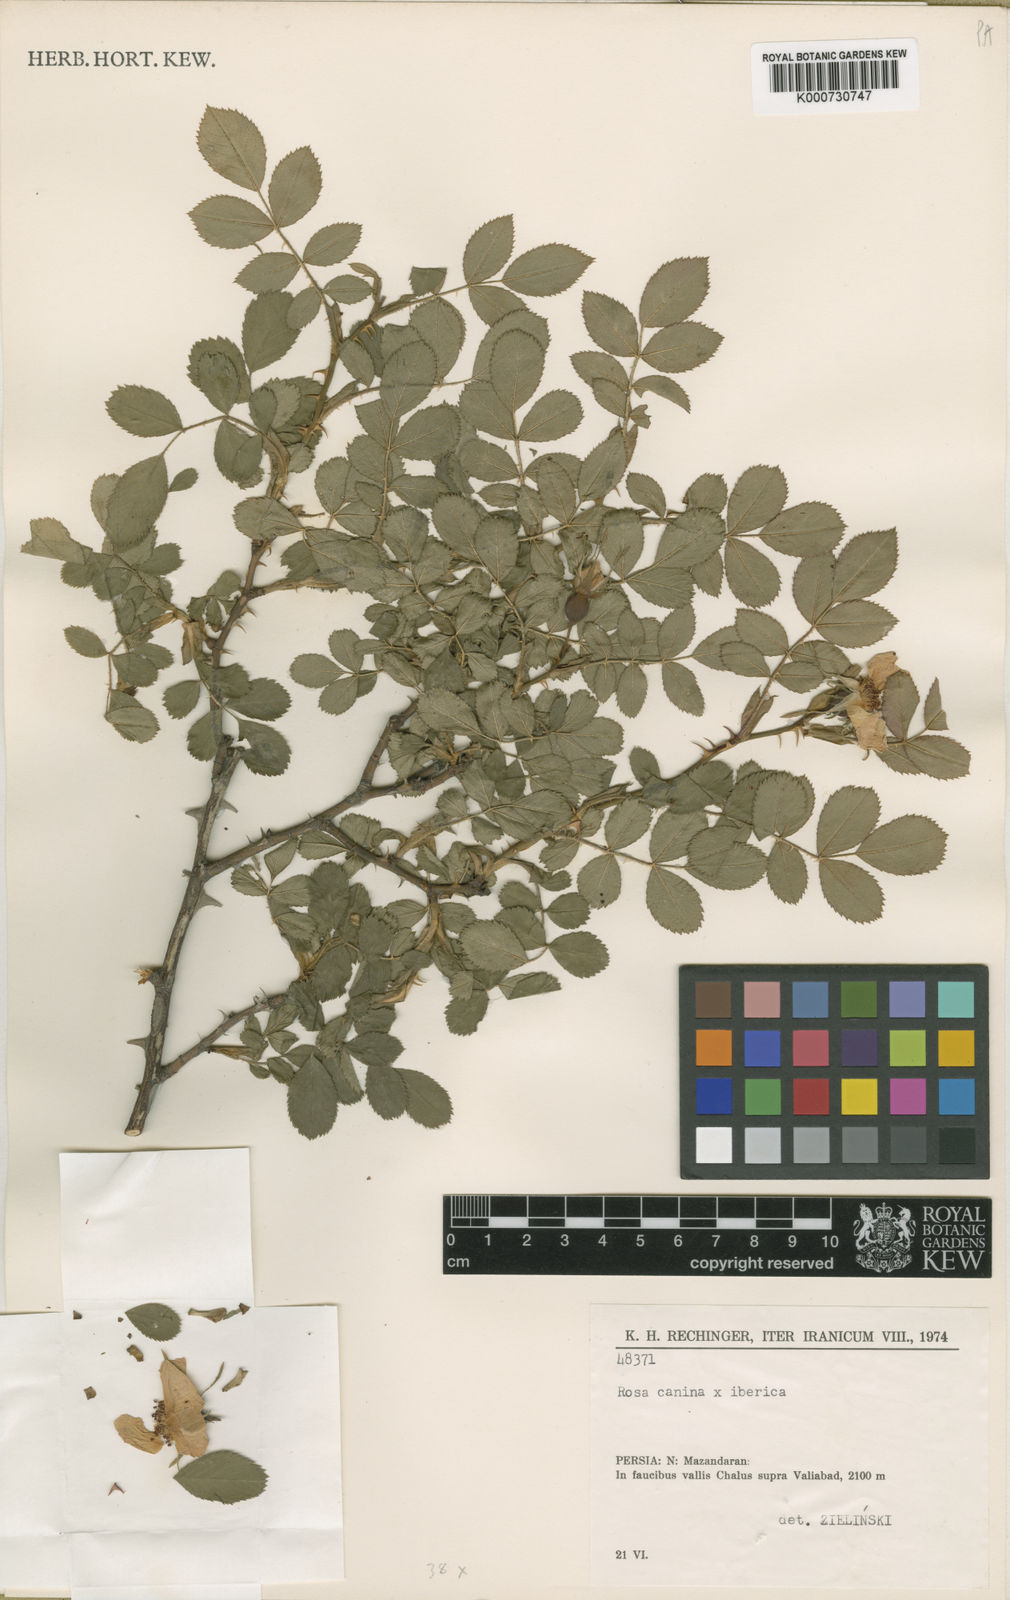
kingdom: Plantae
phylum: Tracheophyta
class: Magnoliopsida
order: Rosales
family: Rosaceae
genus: Rosa
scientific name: Rosa canina
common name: Dog rose
